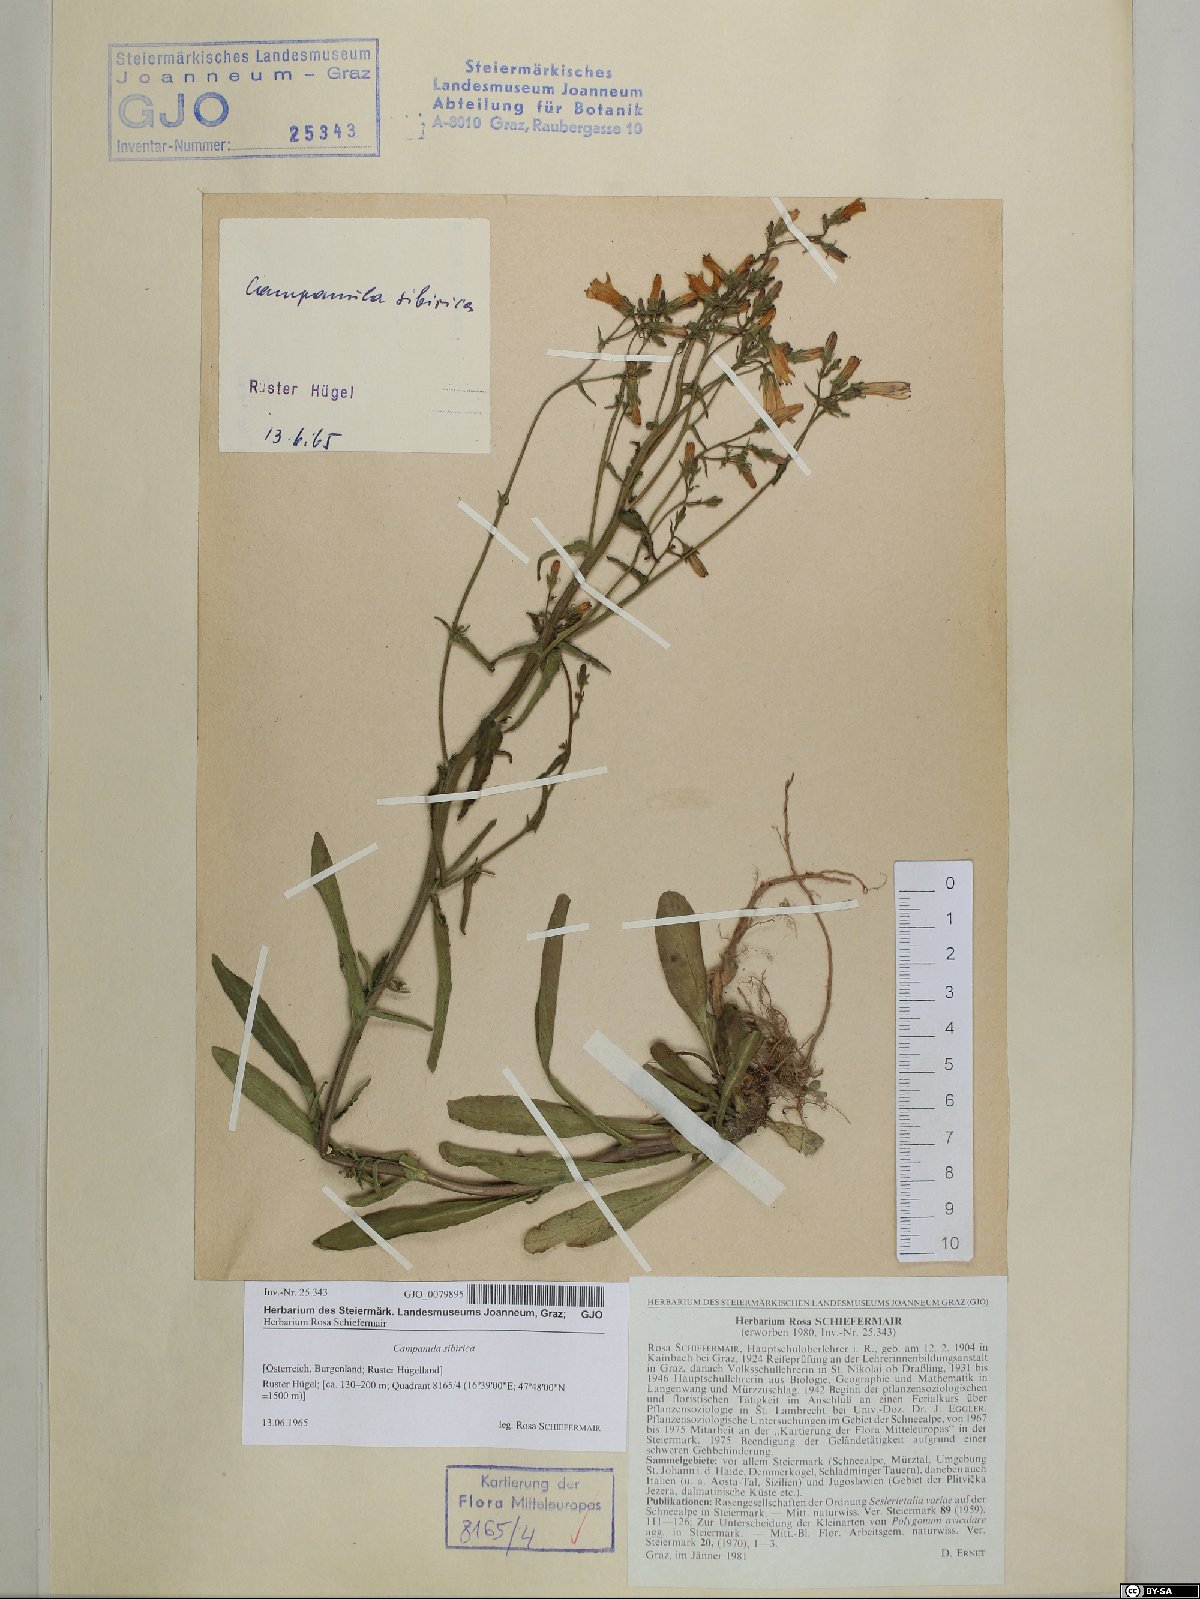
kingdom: Plantae
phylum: Tracheophyta
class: Magnoliopsida
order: Asterales
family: Campanulaceae
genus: Campanula
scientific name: Campanula sibirica
